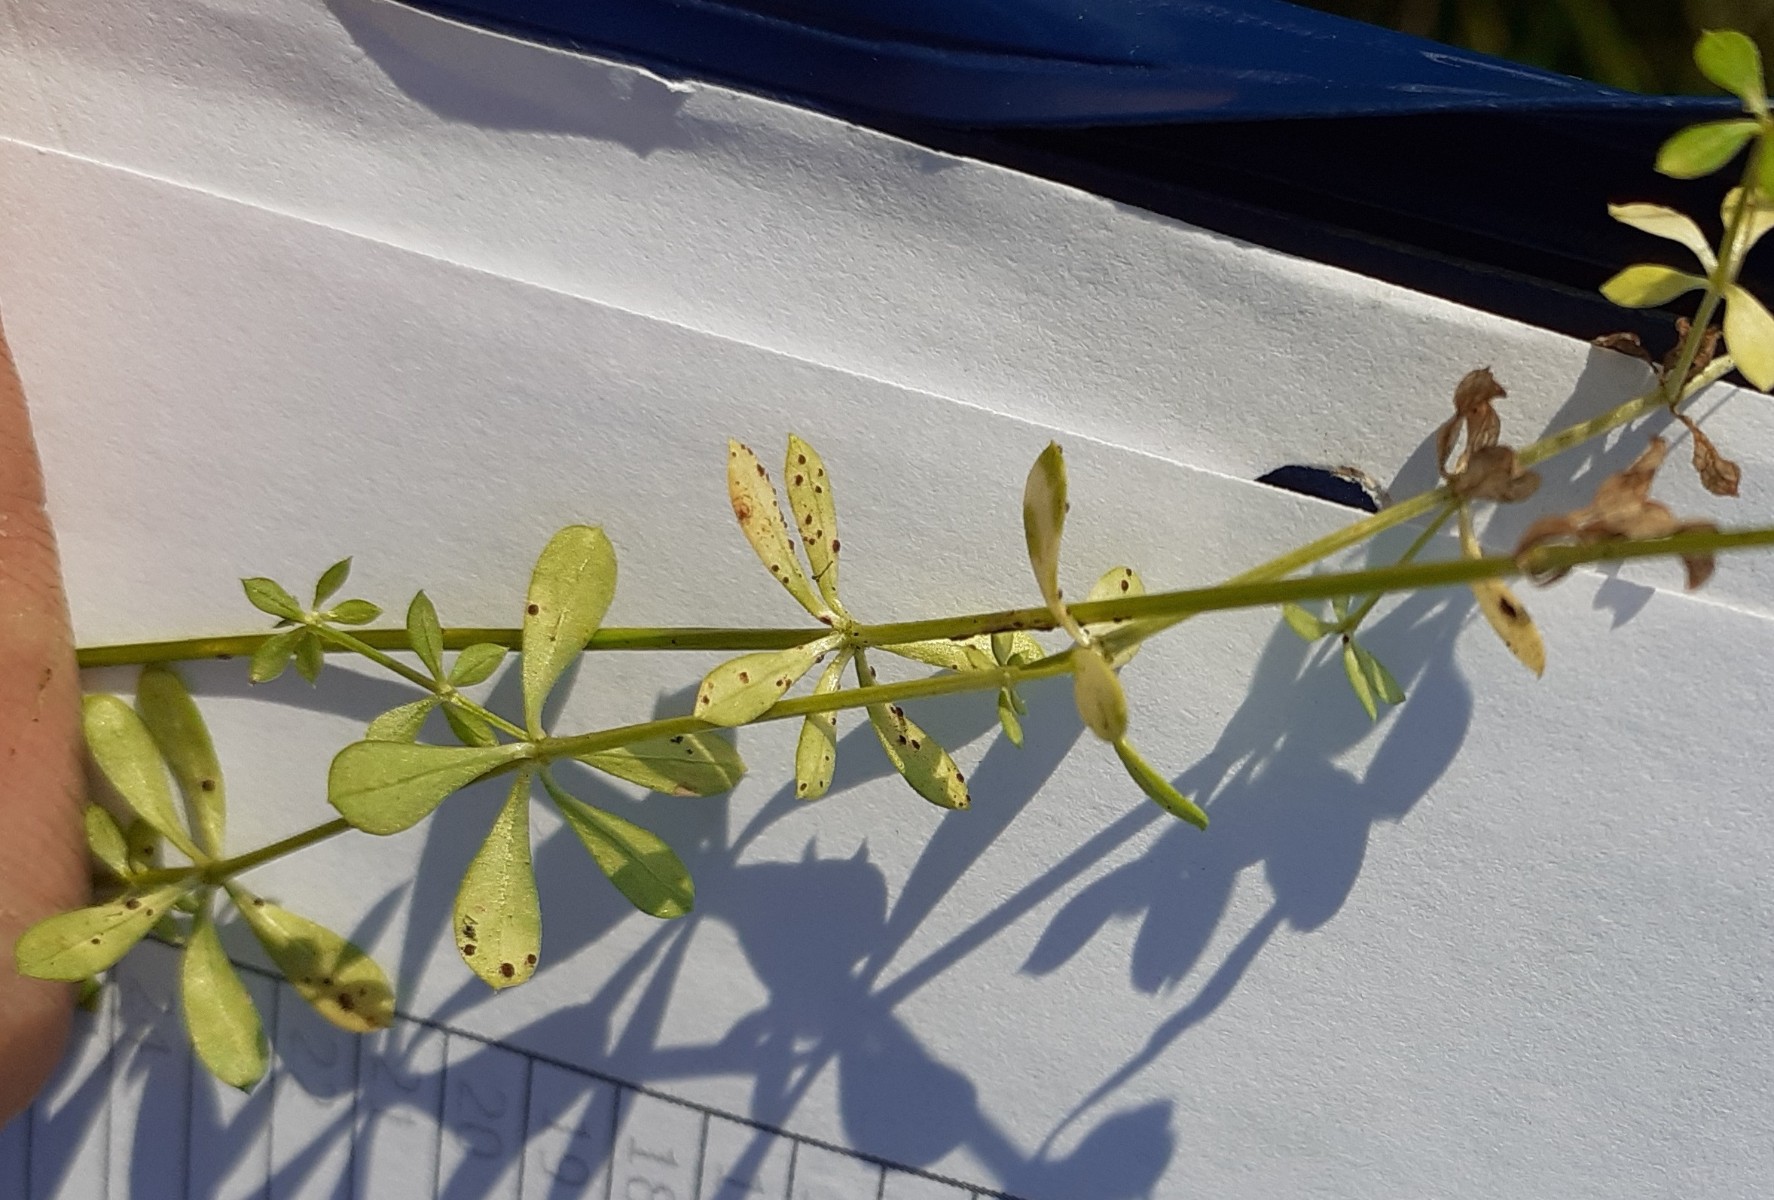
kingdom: Fungi
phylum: Basidiomycota
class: Pucciniomycetes
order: Pucciniales
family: Pucciniaceae
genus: Puccinia
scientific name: Puccinia punctata
